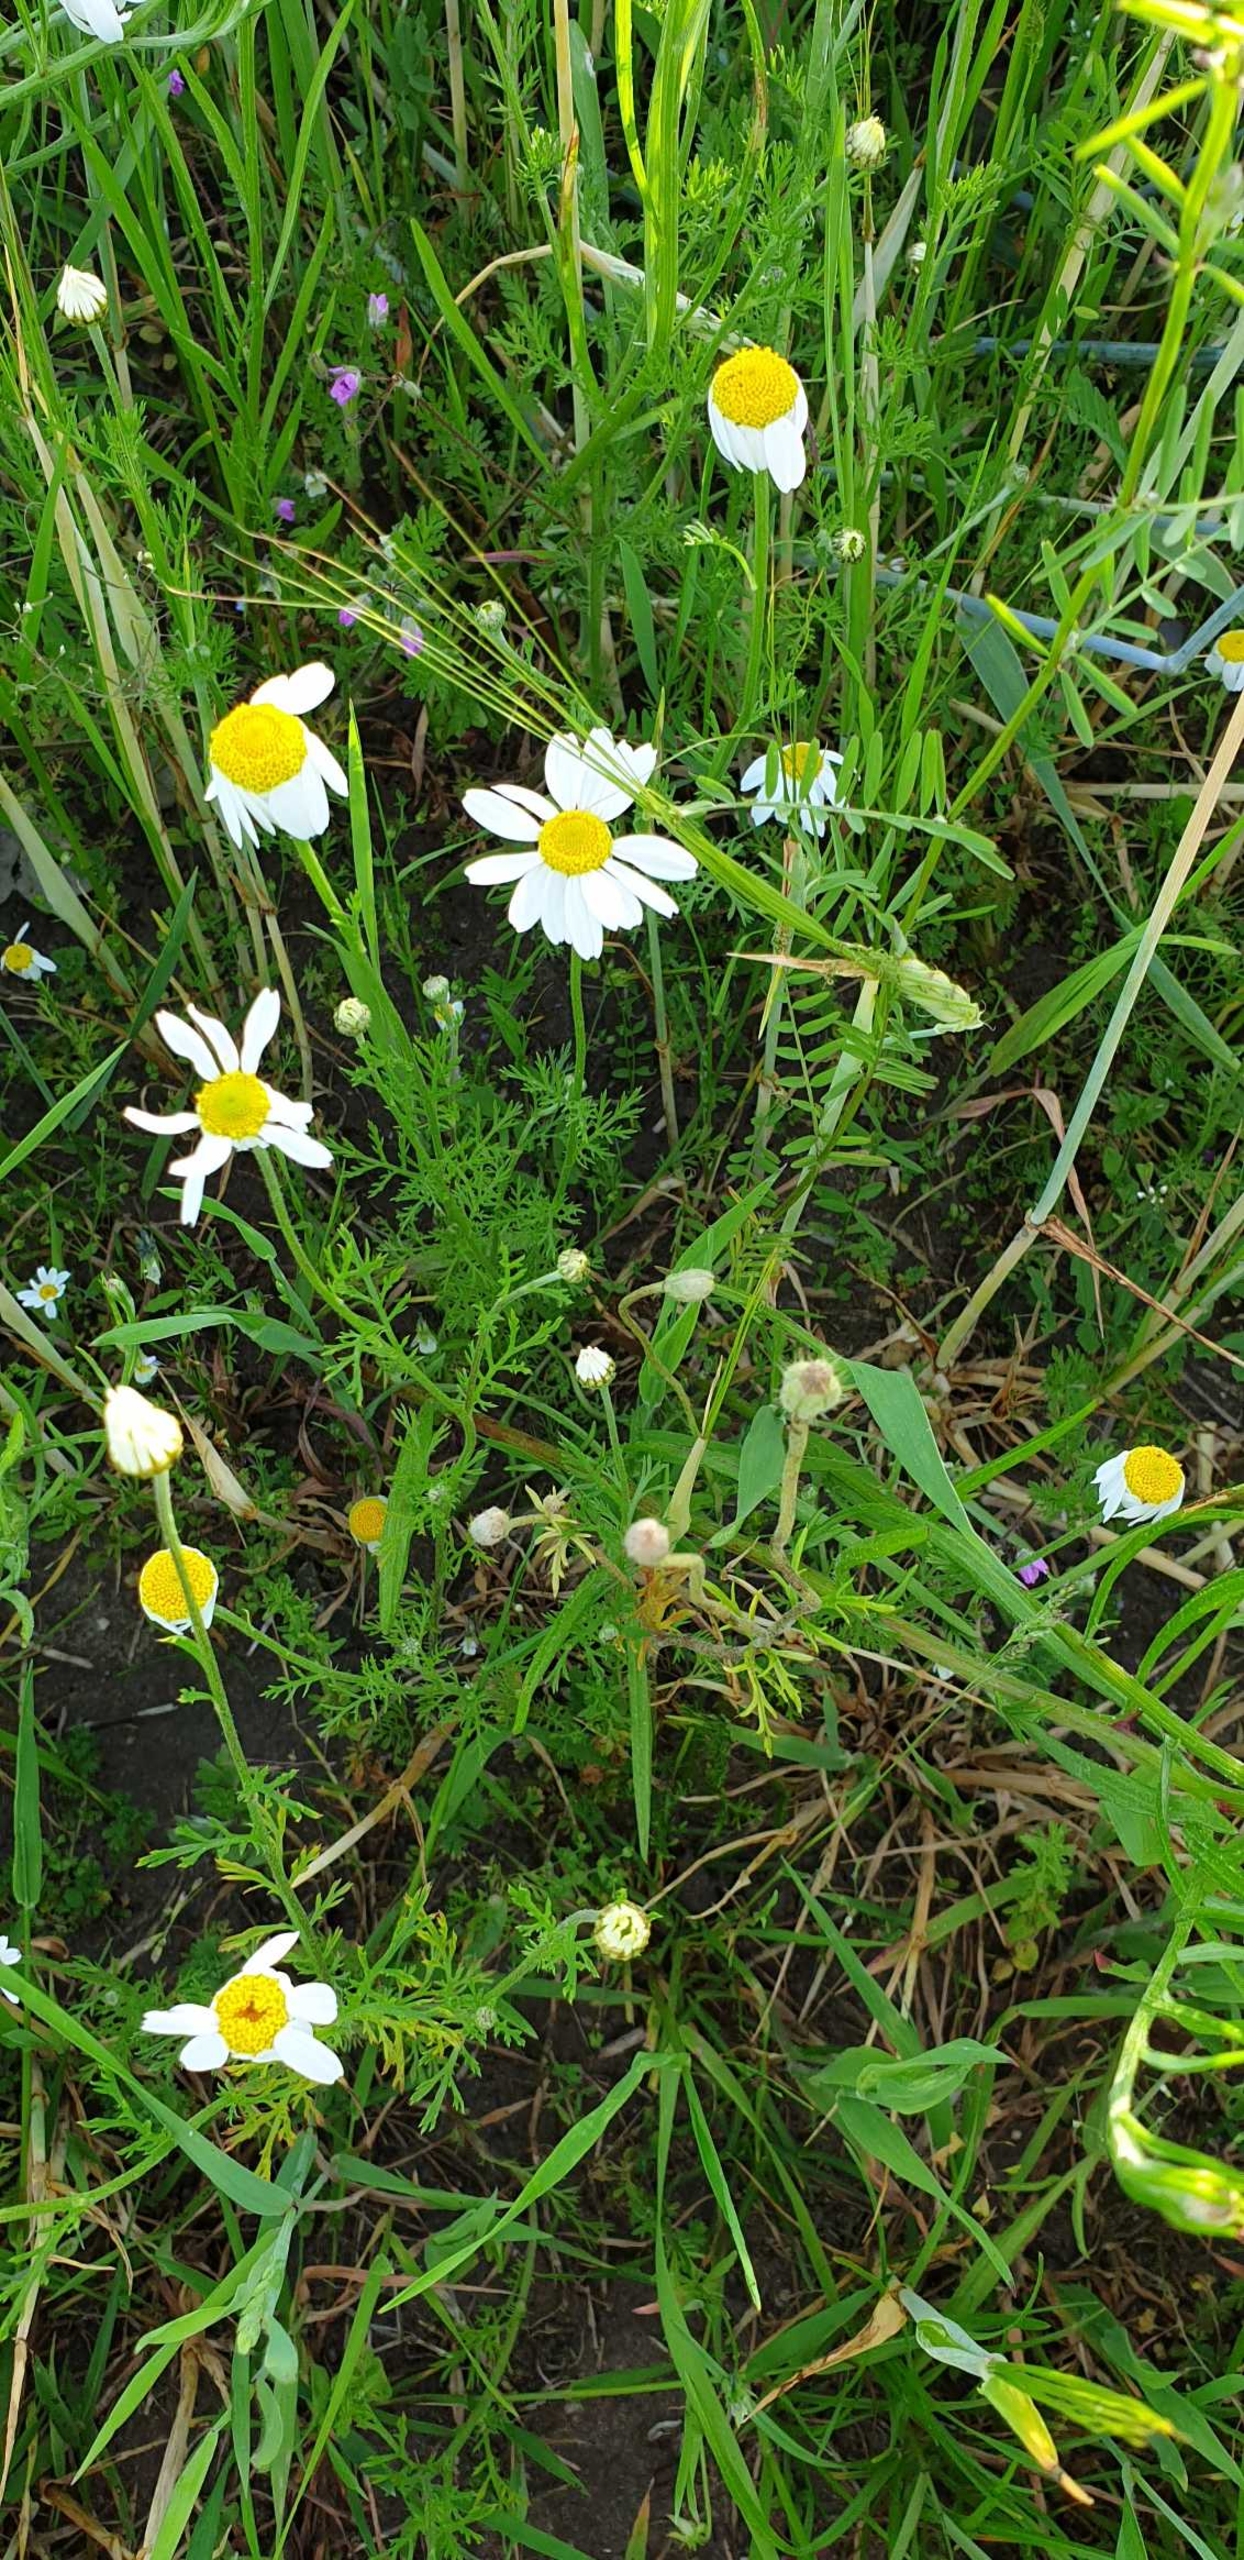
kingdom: Plantae
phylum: Tracheophyta
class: Magnoliopsida
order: Asterales
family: Asteraceae
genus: Anthemis
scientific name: Anthemis
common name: Gåseurt (Anthemis-slægten)
